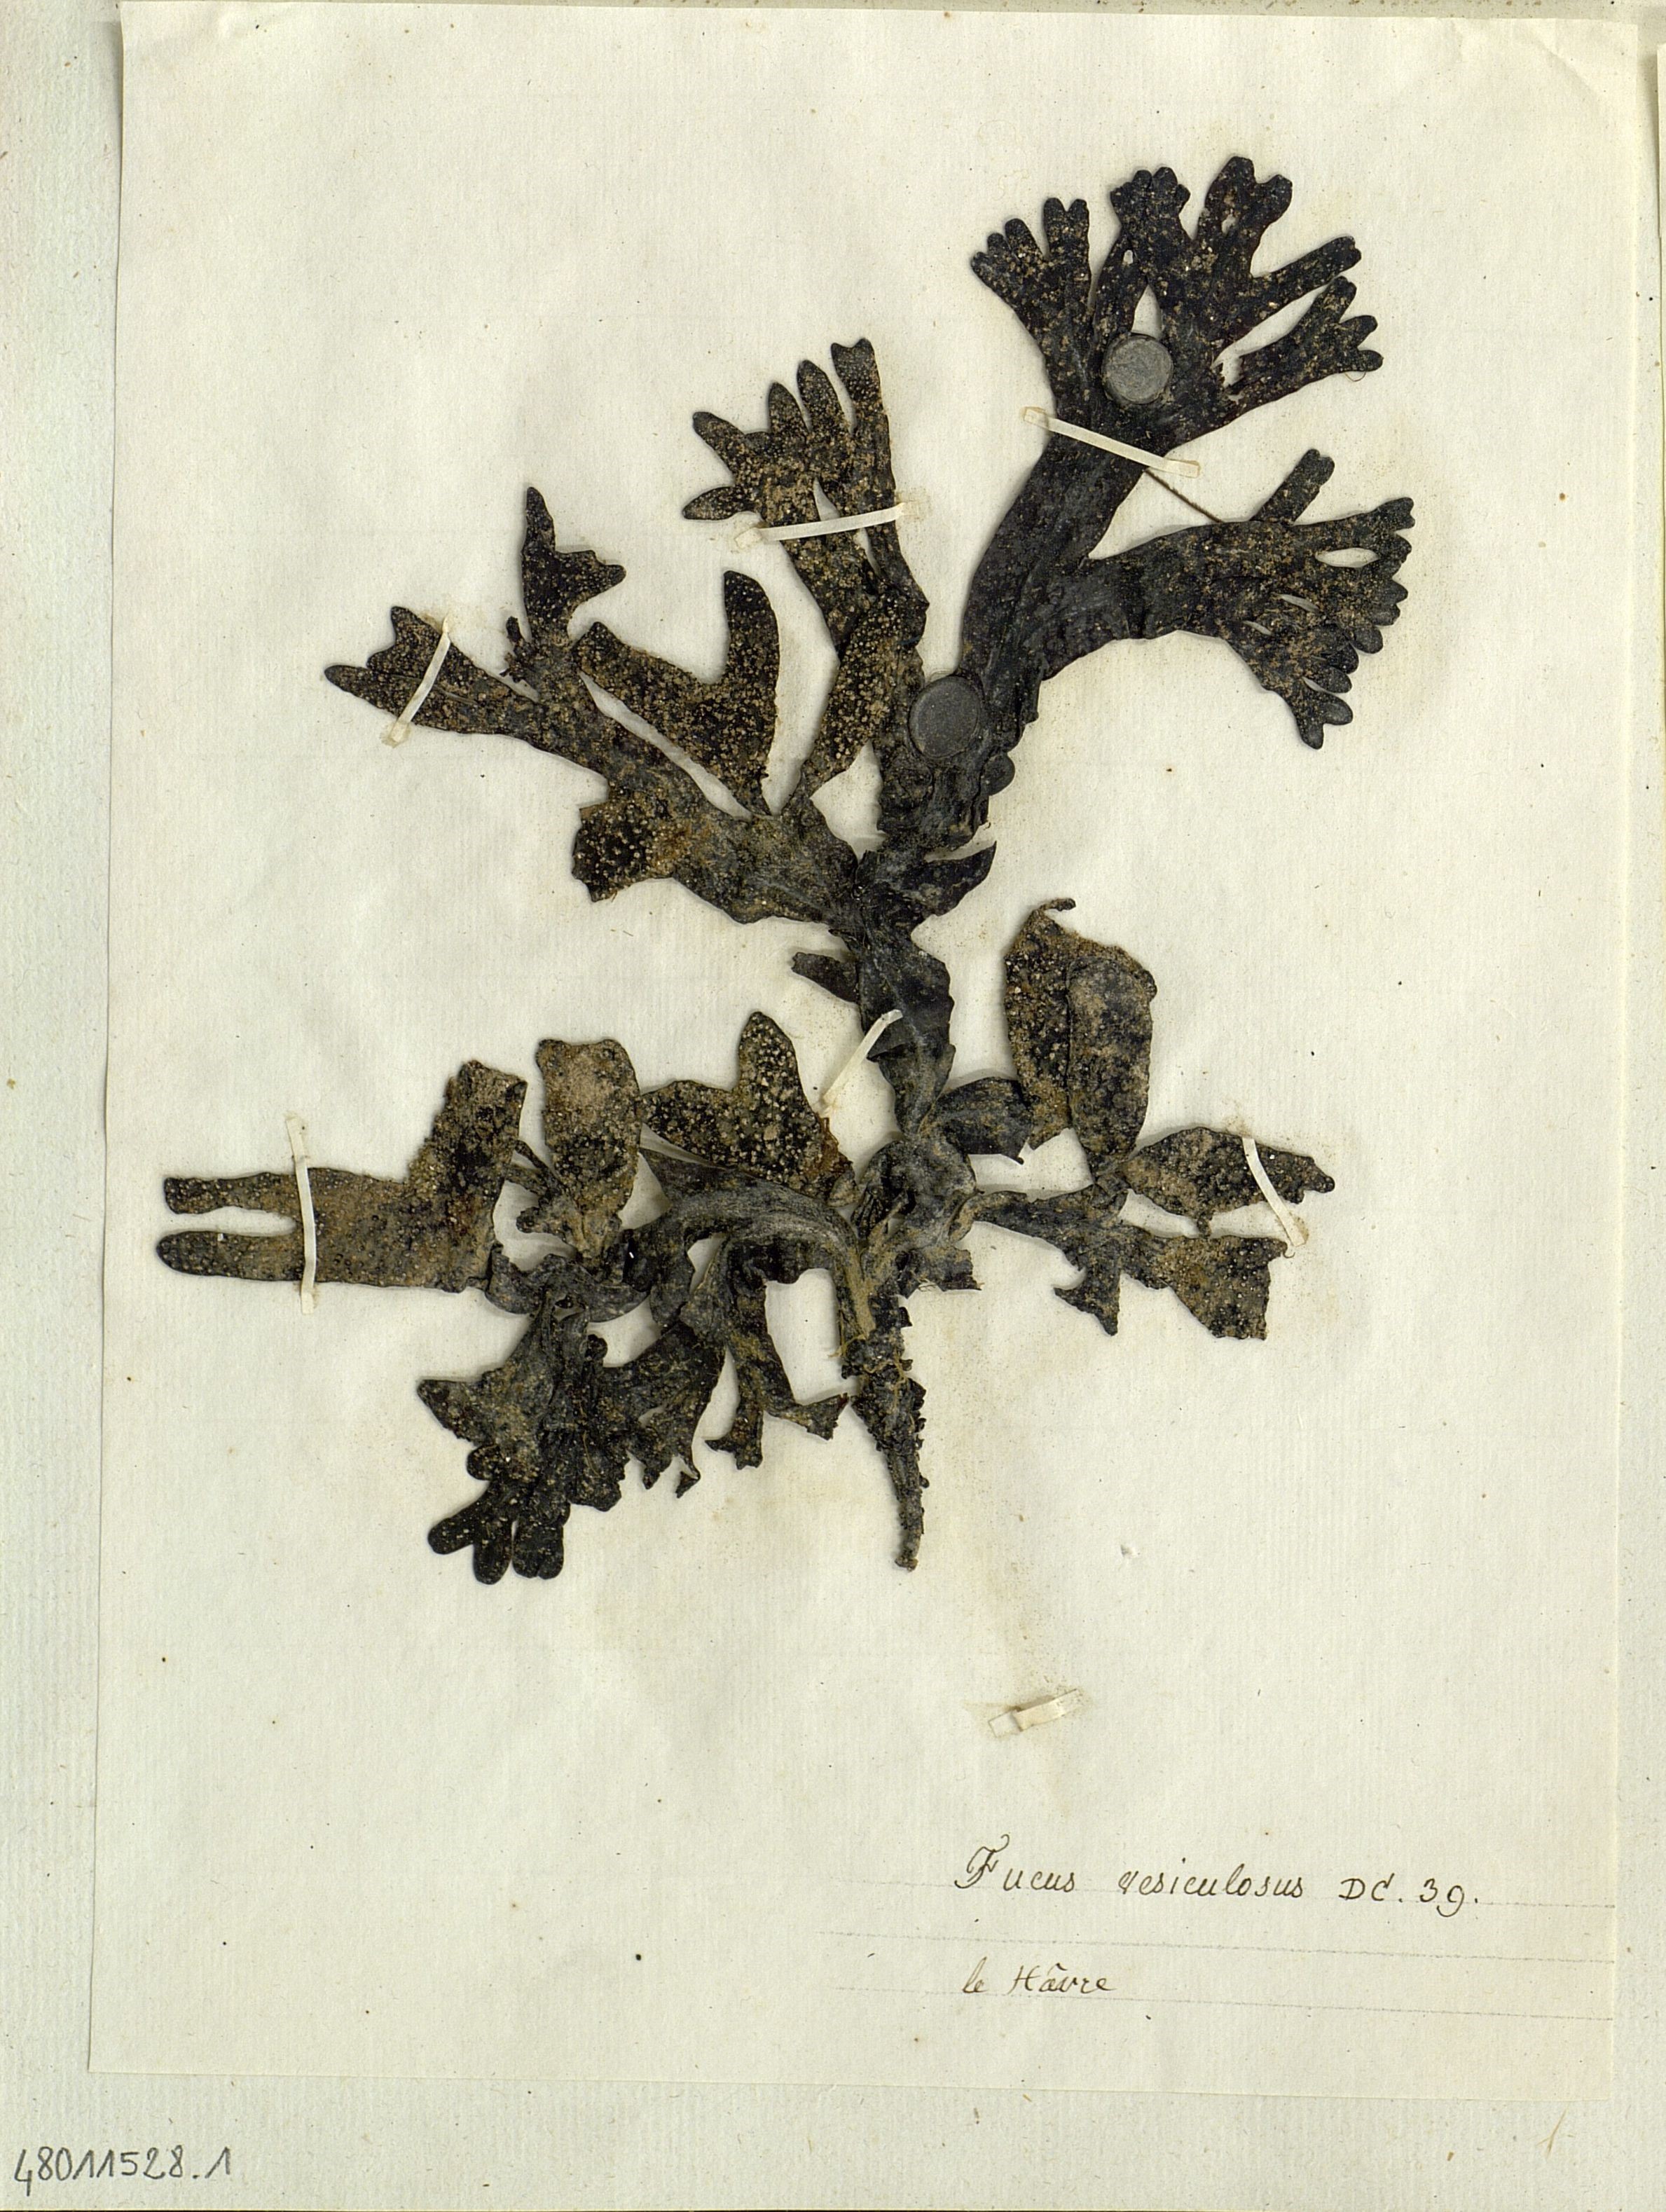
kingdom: Chromista
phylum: Ochrophyta
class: Phaeophyceae
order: Fucales
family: Fucaceae
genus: Fucus
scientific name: Fucus vesiculosus
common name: Bladder wrack
